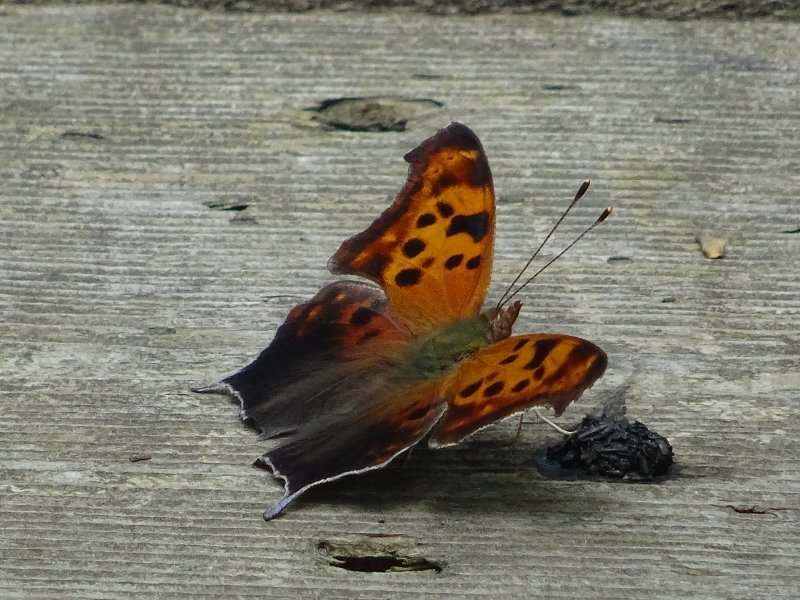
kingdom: Animalia
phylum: Arthropoda
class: Insecta
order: Lepidoptera
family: Nymphalidae
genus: Polygonia
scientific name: Polygonia interrogationis
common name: Question Mark
